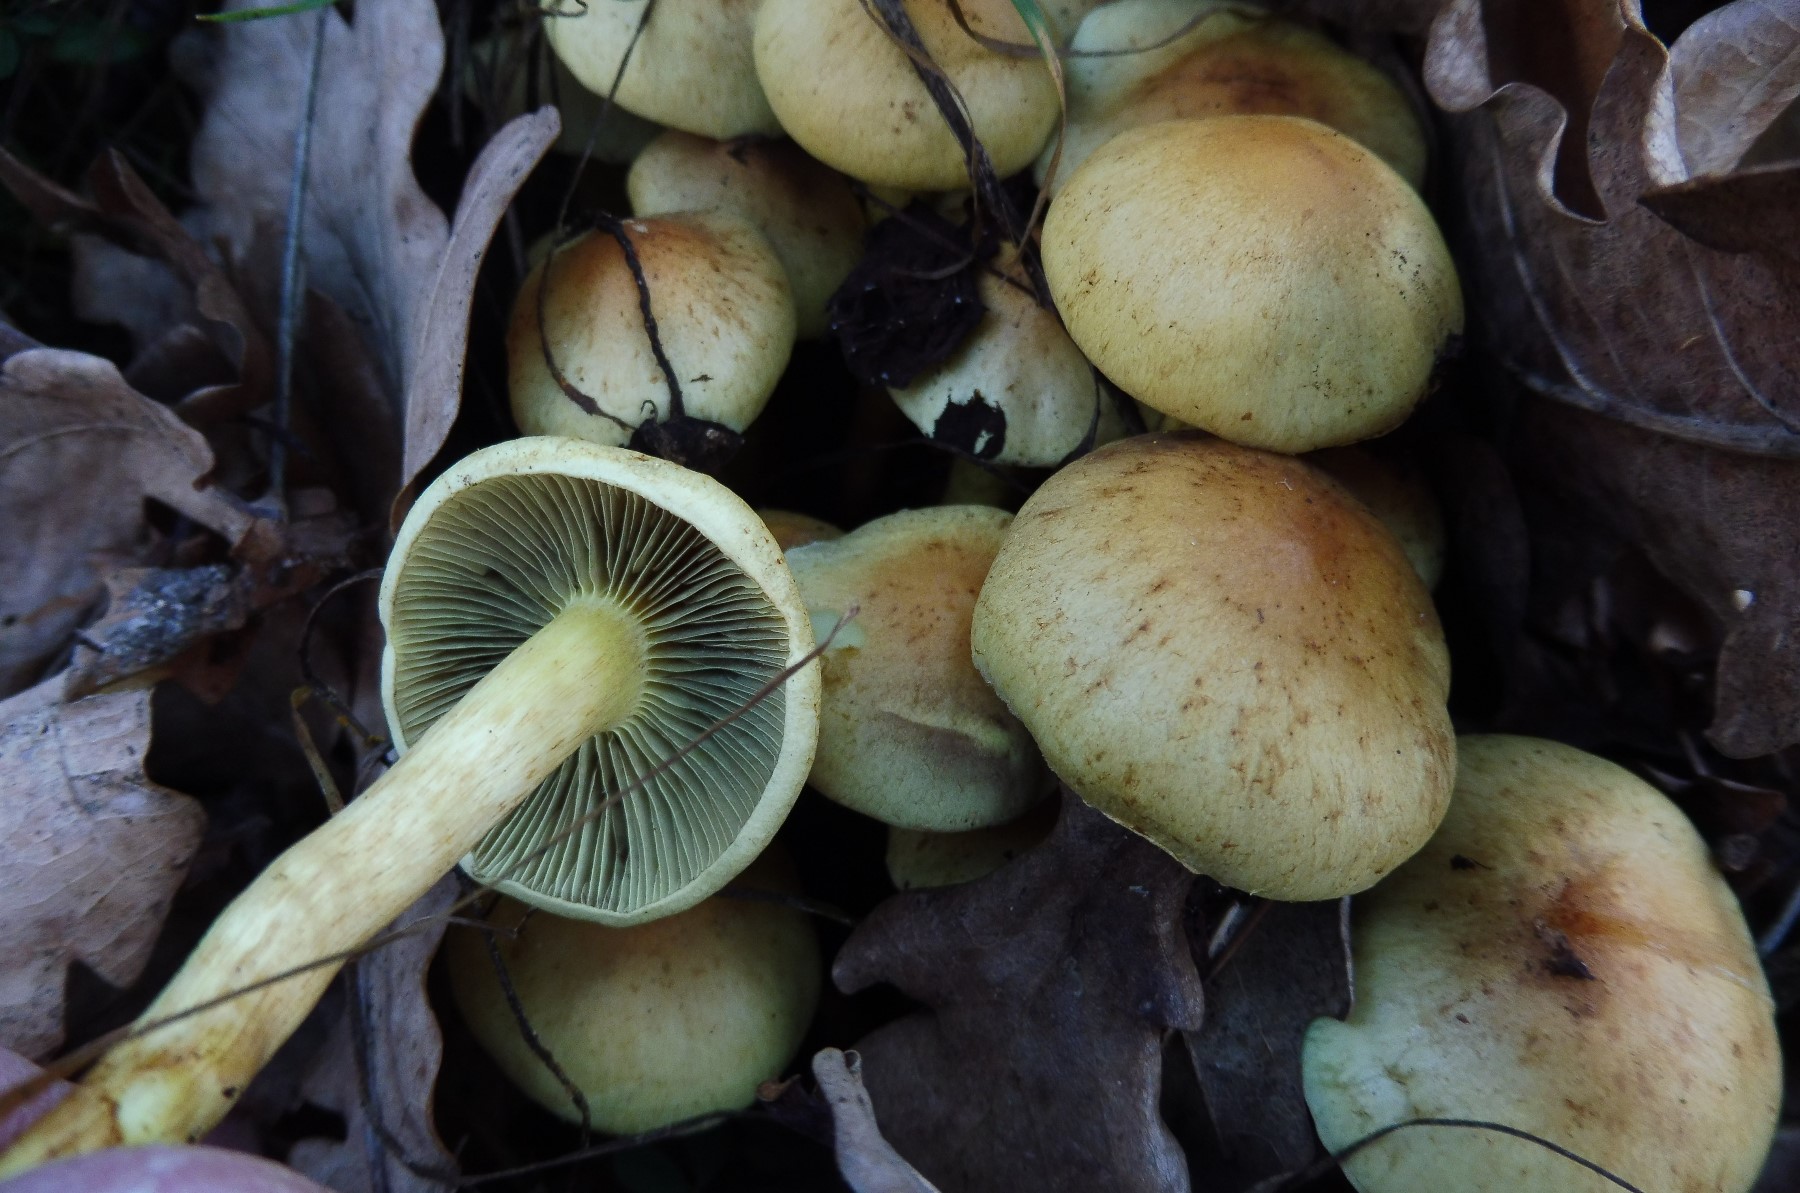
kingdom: Fungi
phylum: Basidiomycota
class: Agaricomycetes
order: Agaricales
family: Strophariaceae
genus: Hypholoma
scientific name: Hypholoma fasciculare
